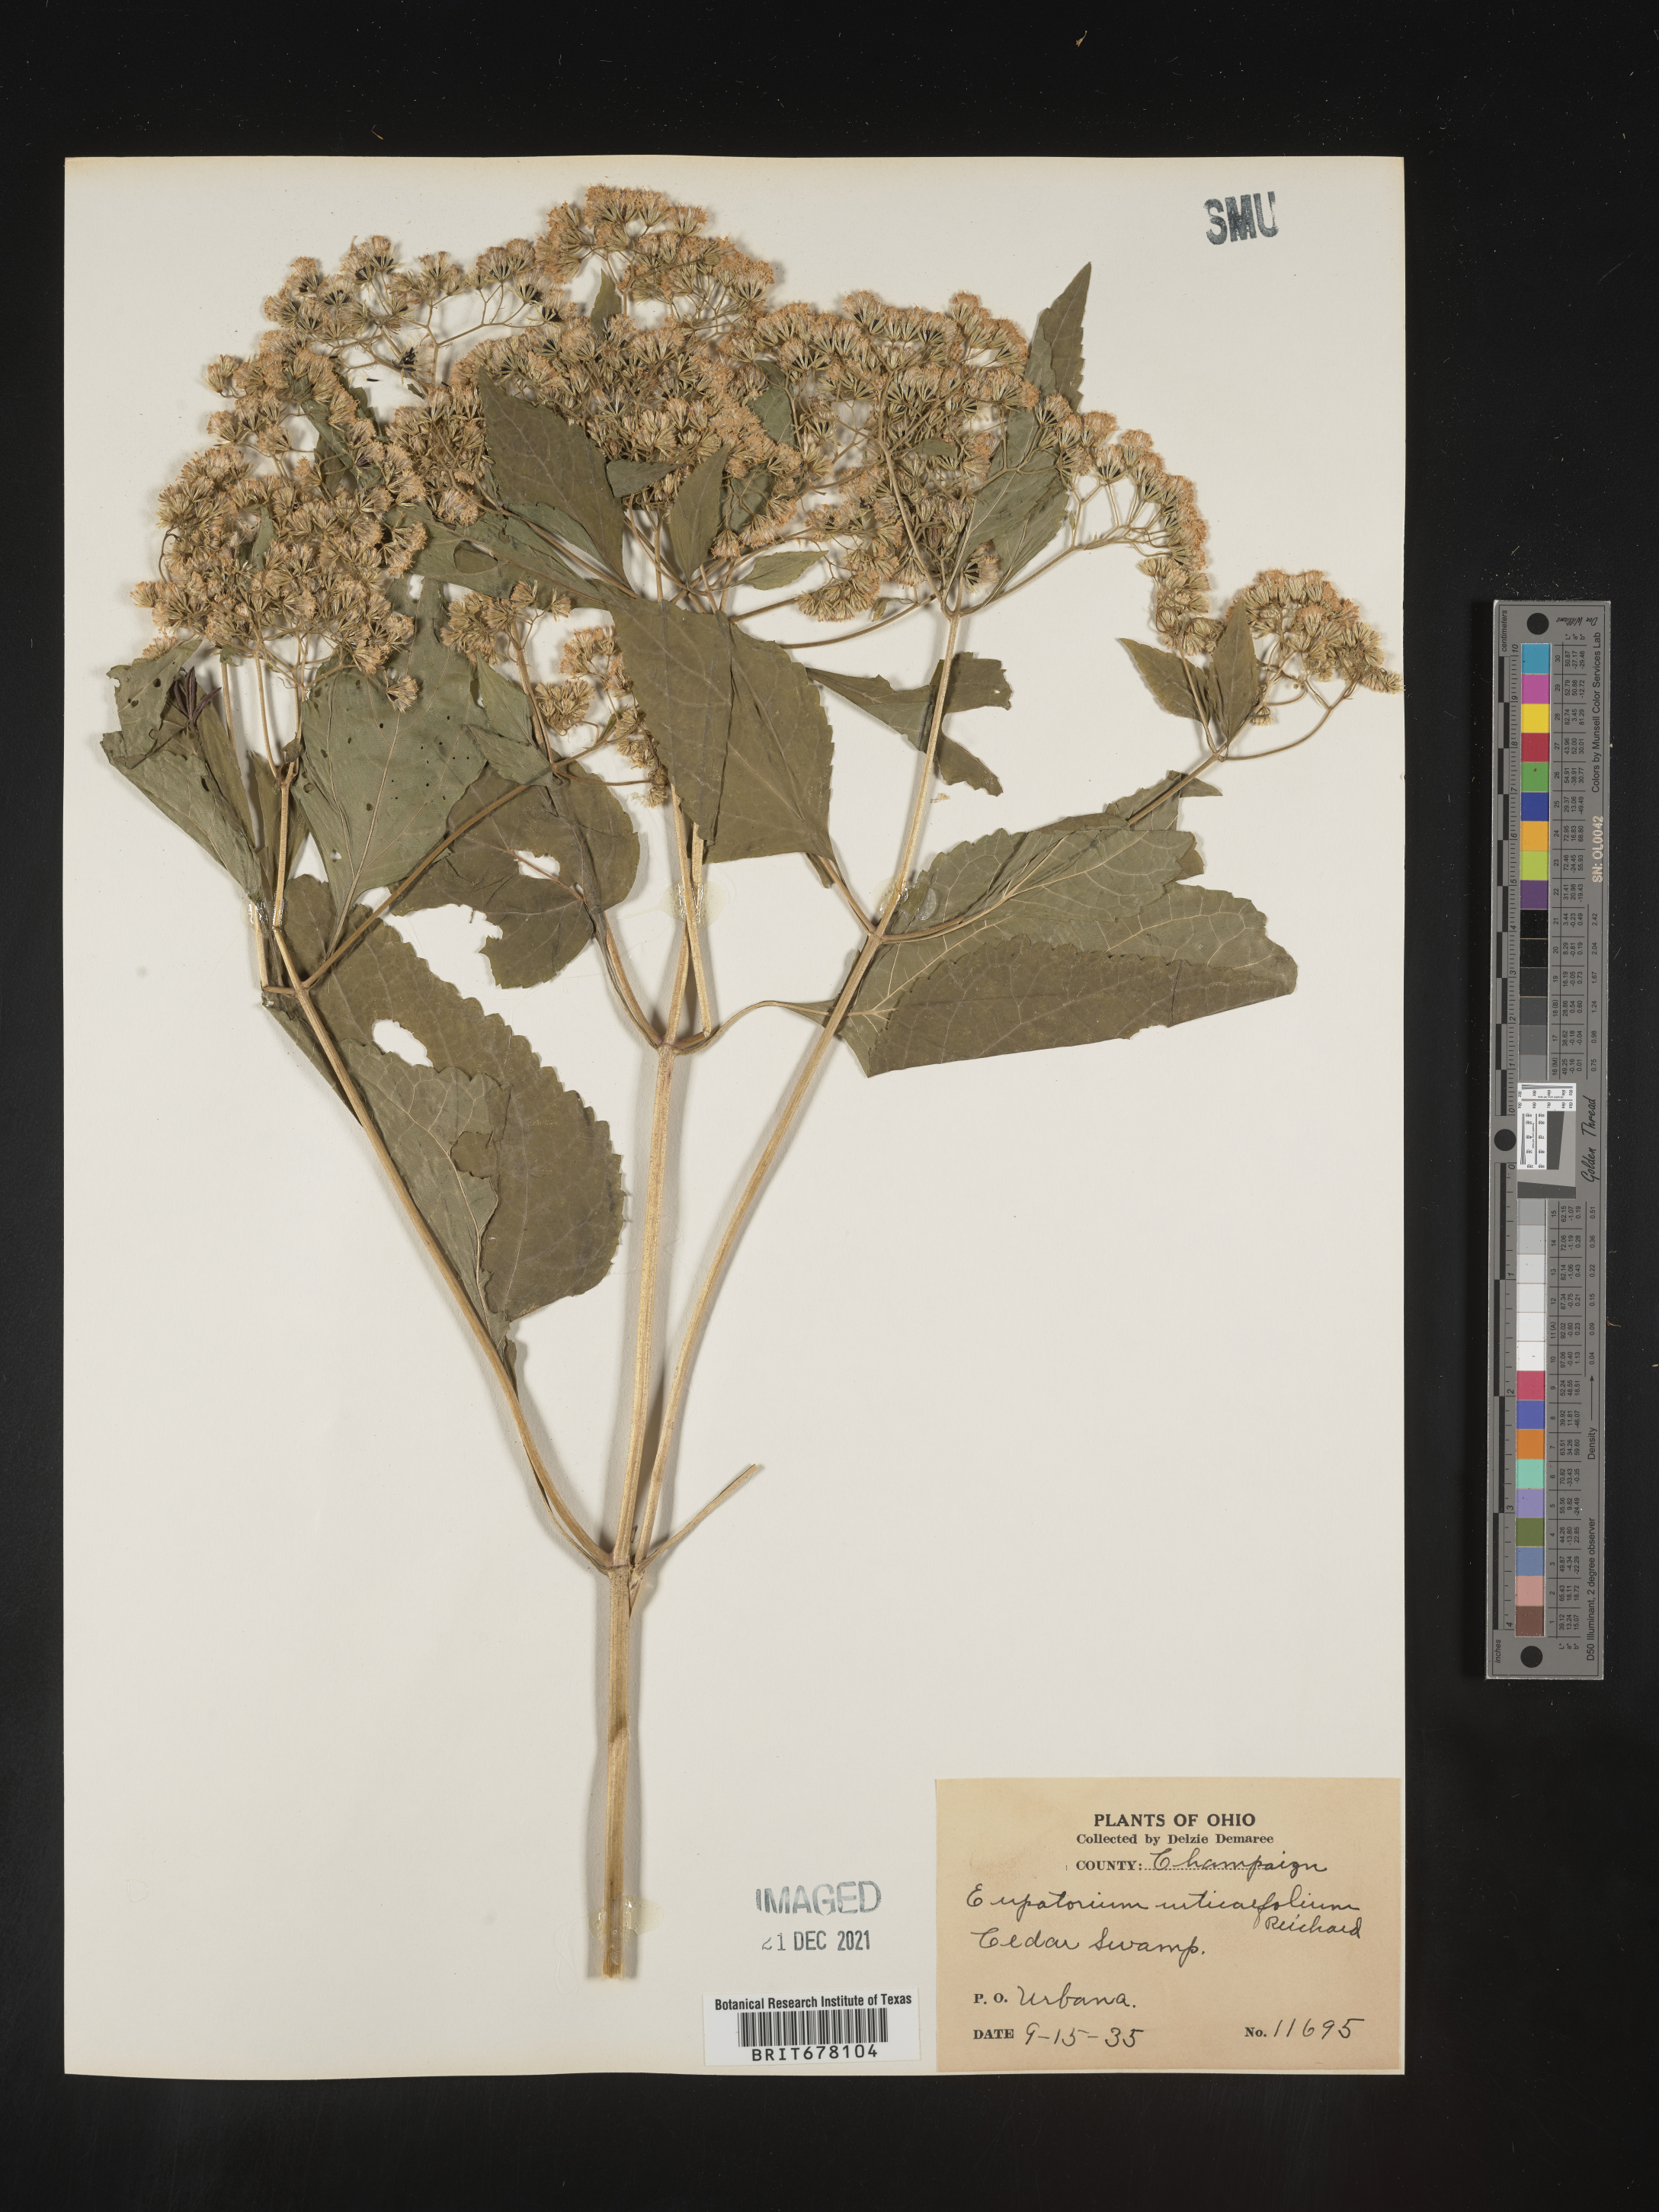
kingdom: Plantae
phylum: Tracheophyta
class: Magnoliopsida
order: Asterales
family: Asteraceae
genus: Eupatorium
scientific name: Eupatorium
